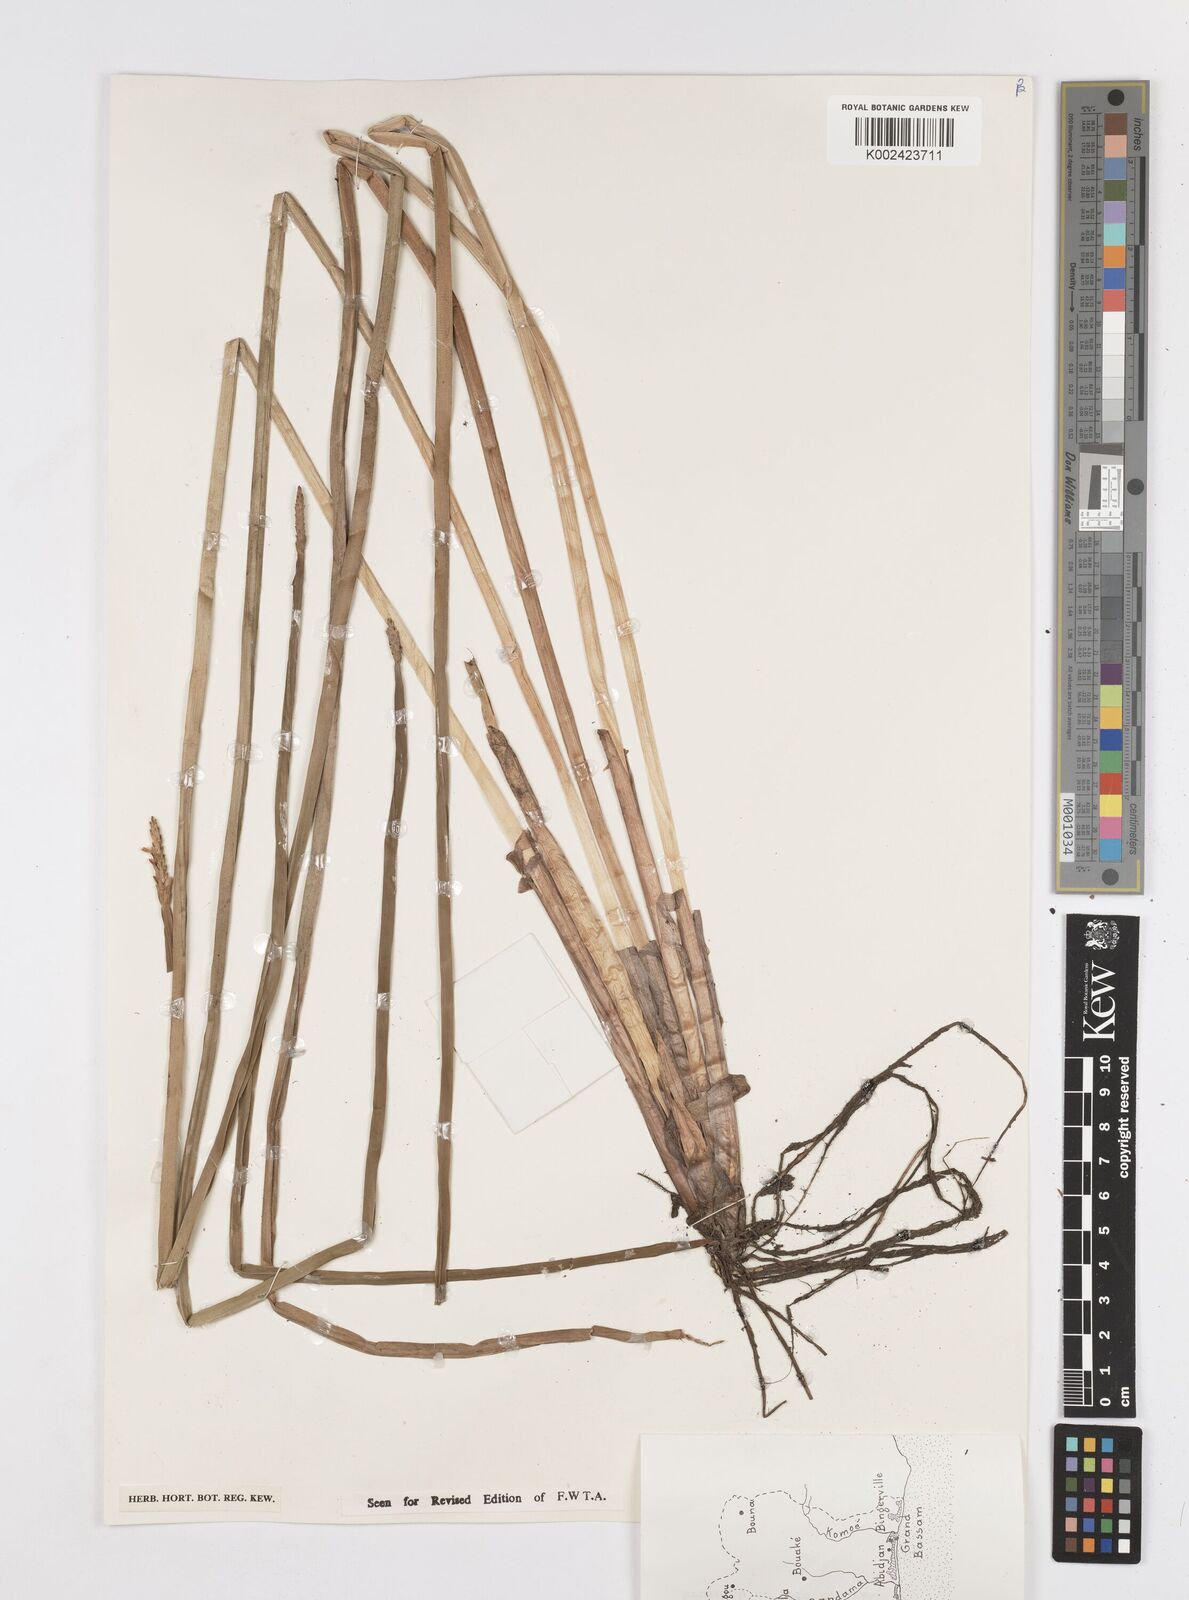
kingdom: Plantae
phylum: Tracheophyta
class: Liliopsida
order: Poales
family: Cyperaceae
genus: Eleocharis
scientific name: Eleocharis acutangula
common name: Acute spikerush
